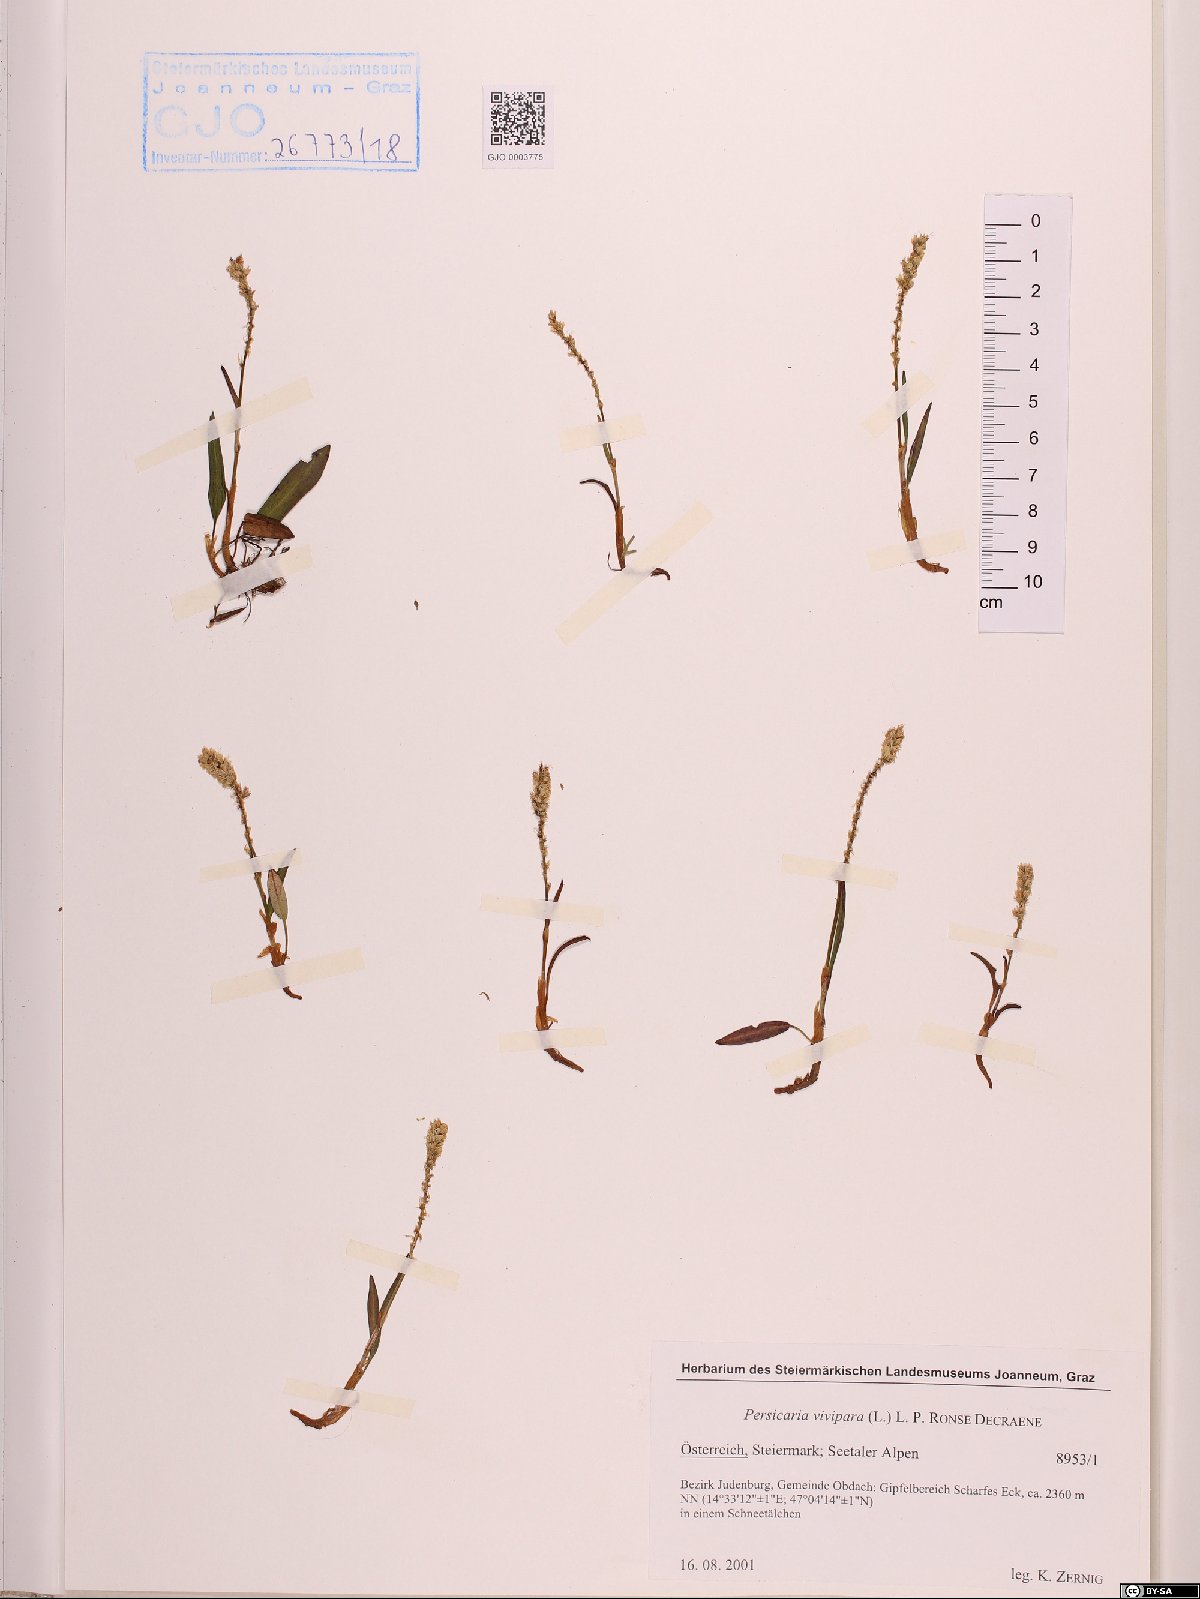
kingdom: Plantae
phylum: Tracheophyta
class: Magnoliopsida
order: Caryophyllales
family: Polygonaceae
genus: Bistorta
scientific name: Bistorta vivipara
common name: Alpine bistort
